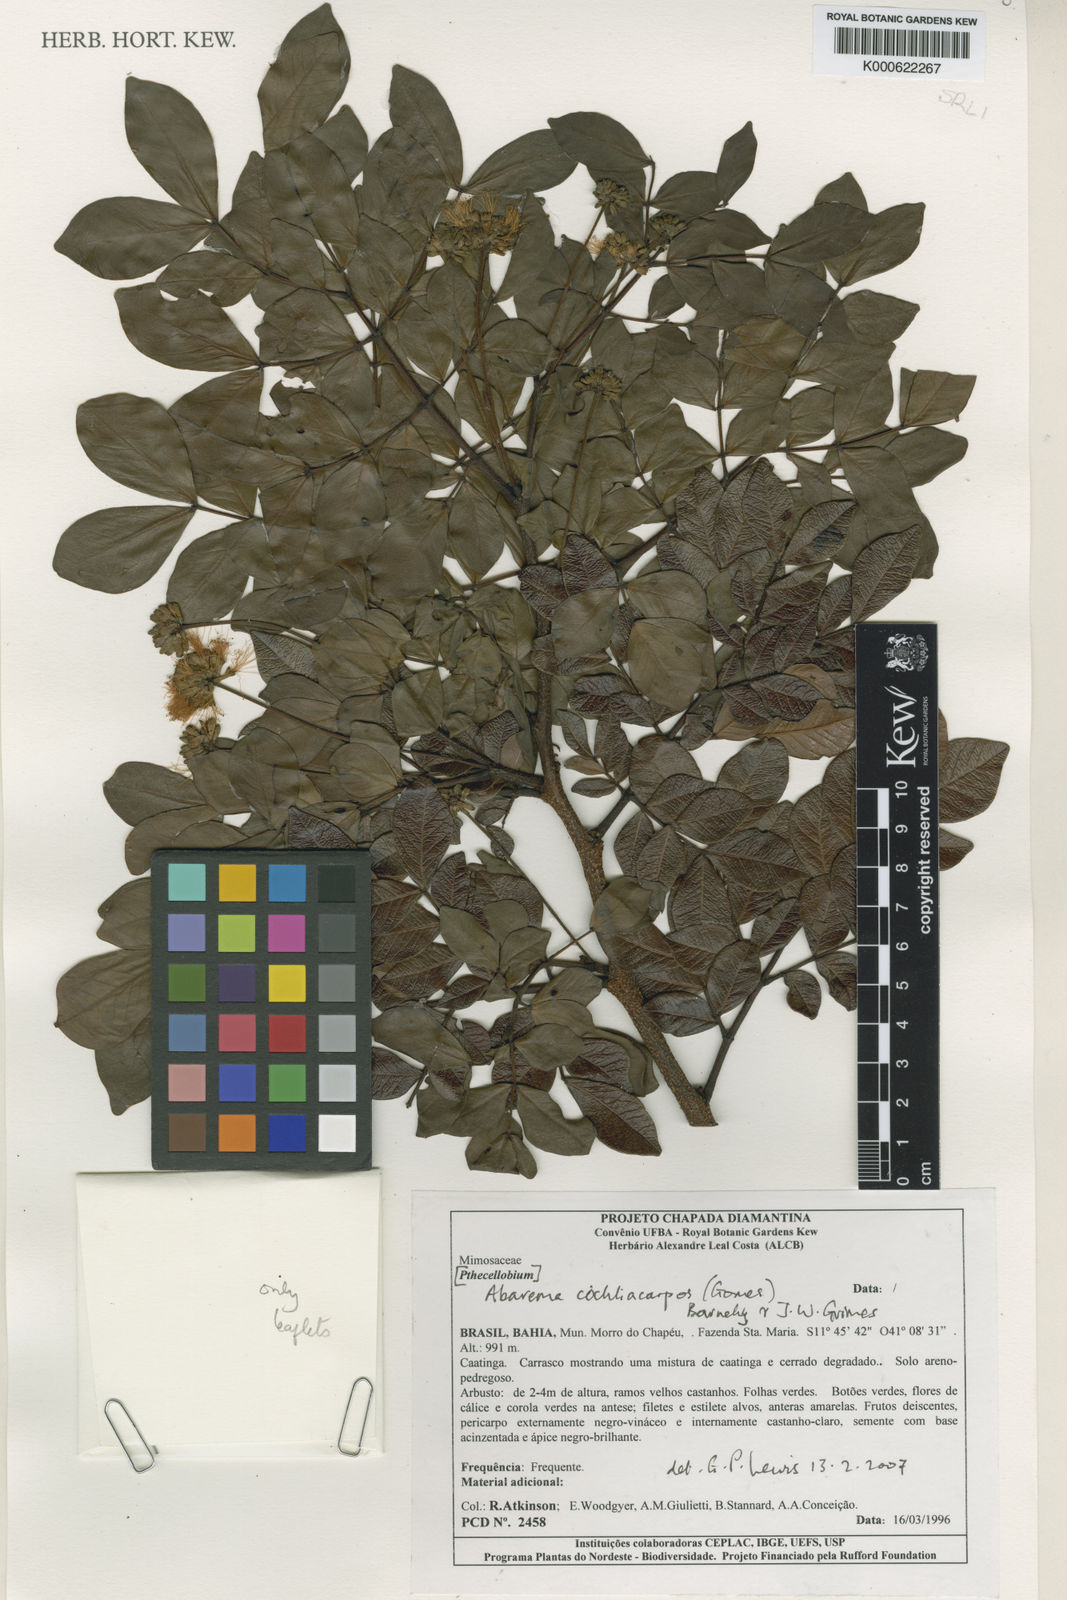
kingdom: Plantae
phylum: Tracheophyta
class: Magnoliopsida
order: Fabales
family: Fabaceae
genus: Abarema
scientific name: Abarema
